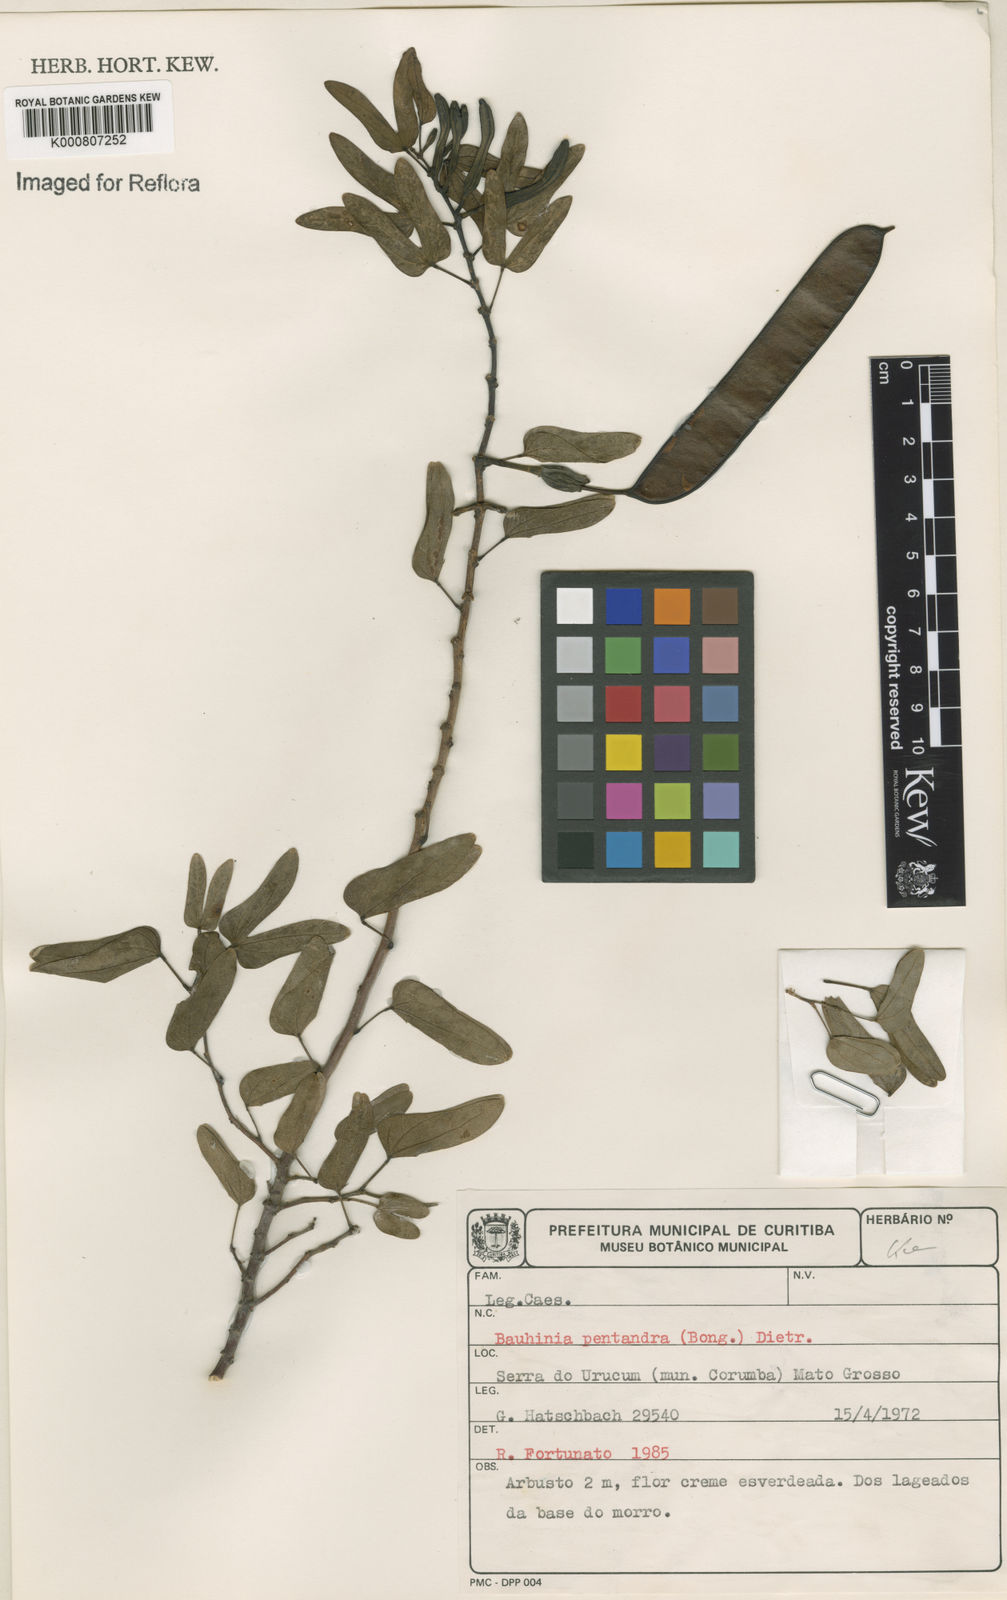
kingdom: Plantae
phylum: Tracheophyta
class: Magnoliopsida
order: Fabales
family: Fabaceae
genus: Bauhinia
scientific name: Bauhinia
